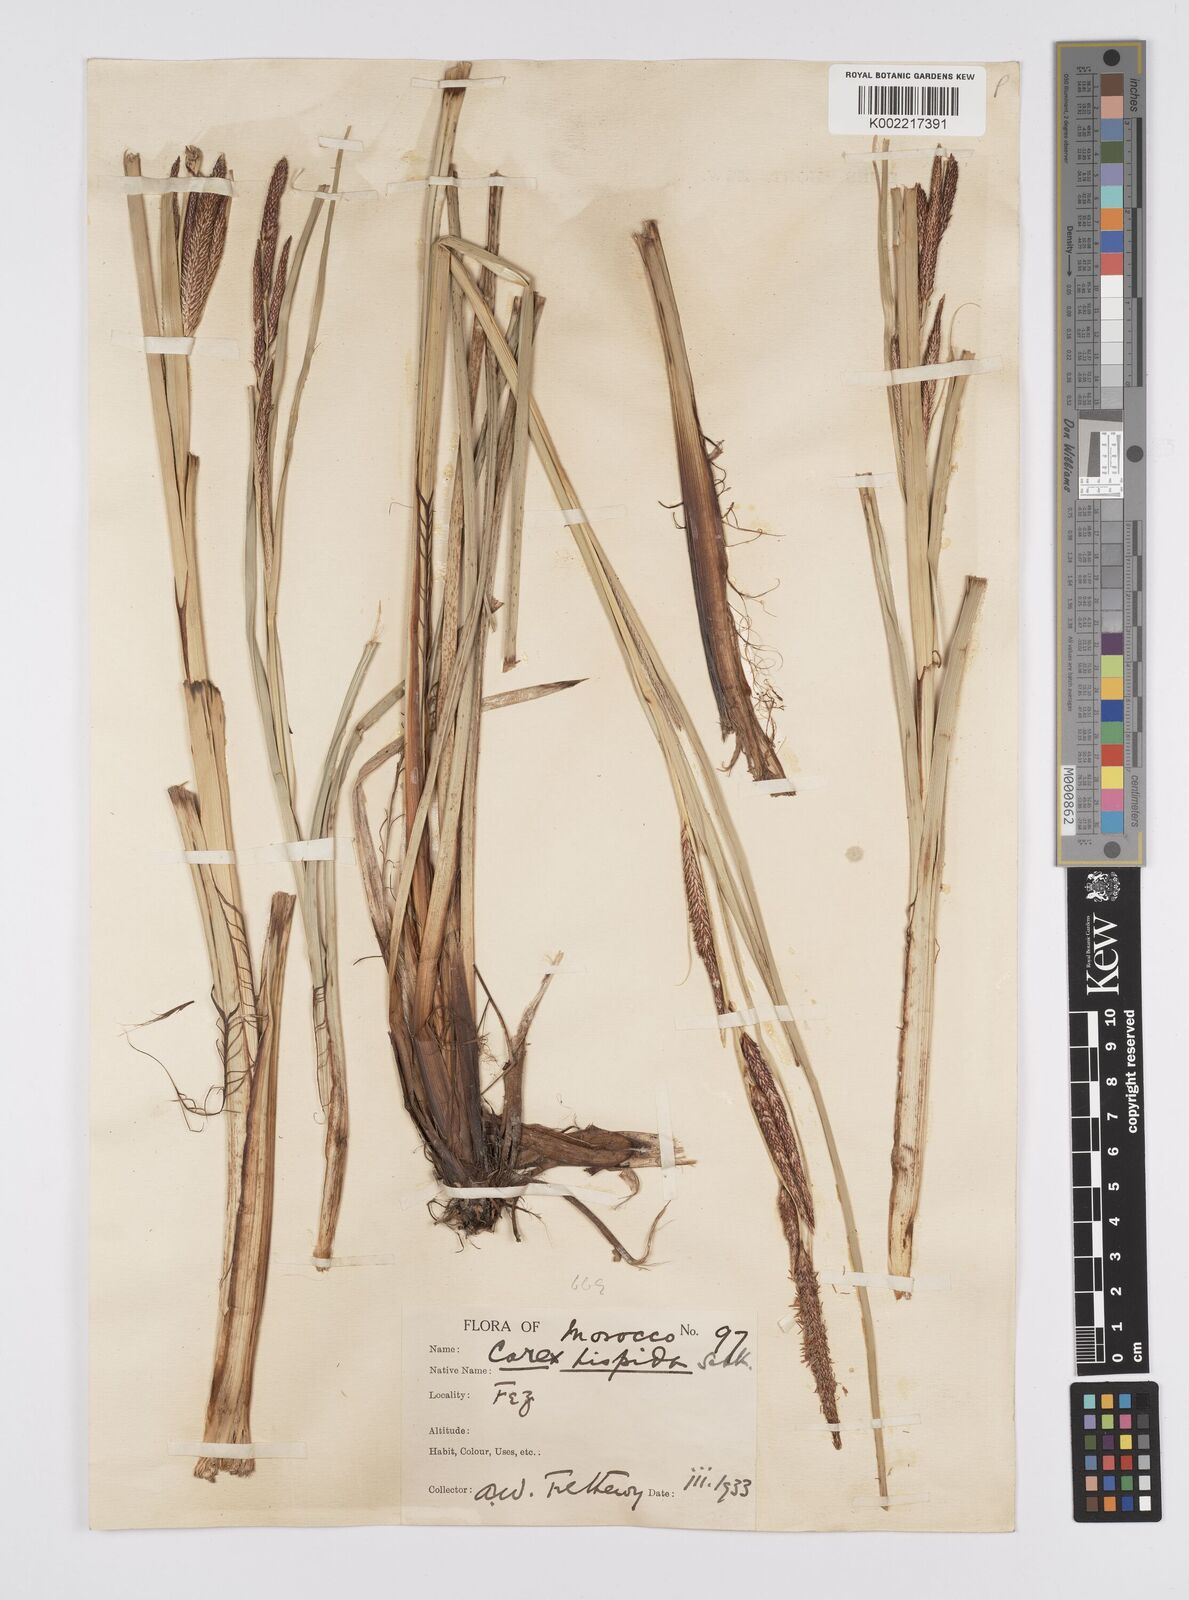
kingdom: Plantae
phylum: Tracheophyta
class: Liliopsida
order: Poales
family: Cyperaceae
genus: Carex
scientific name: Carex hispida
